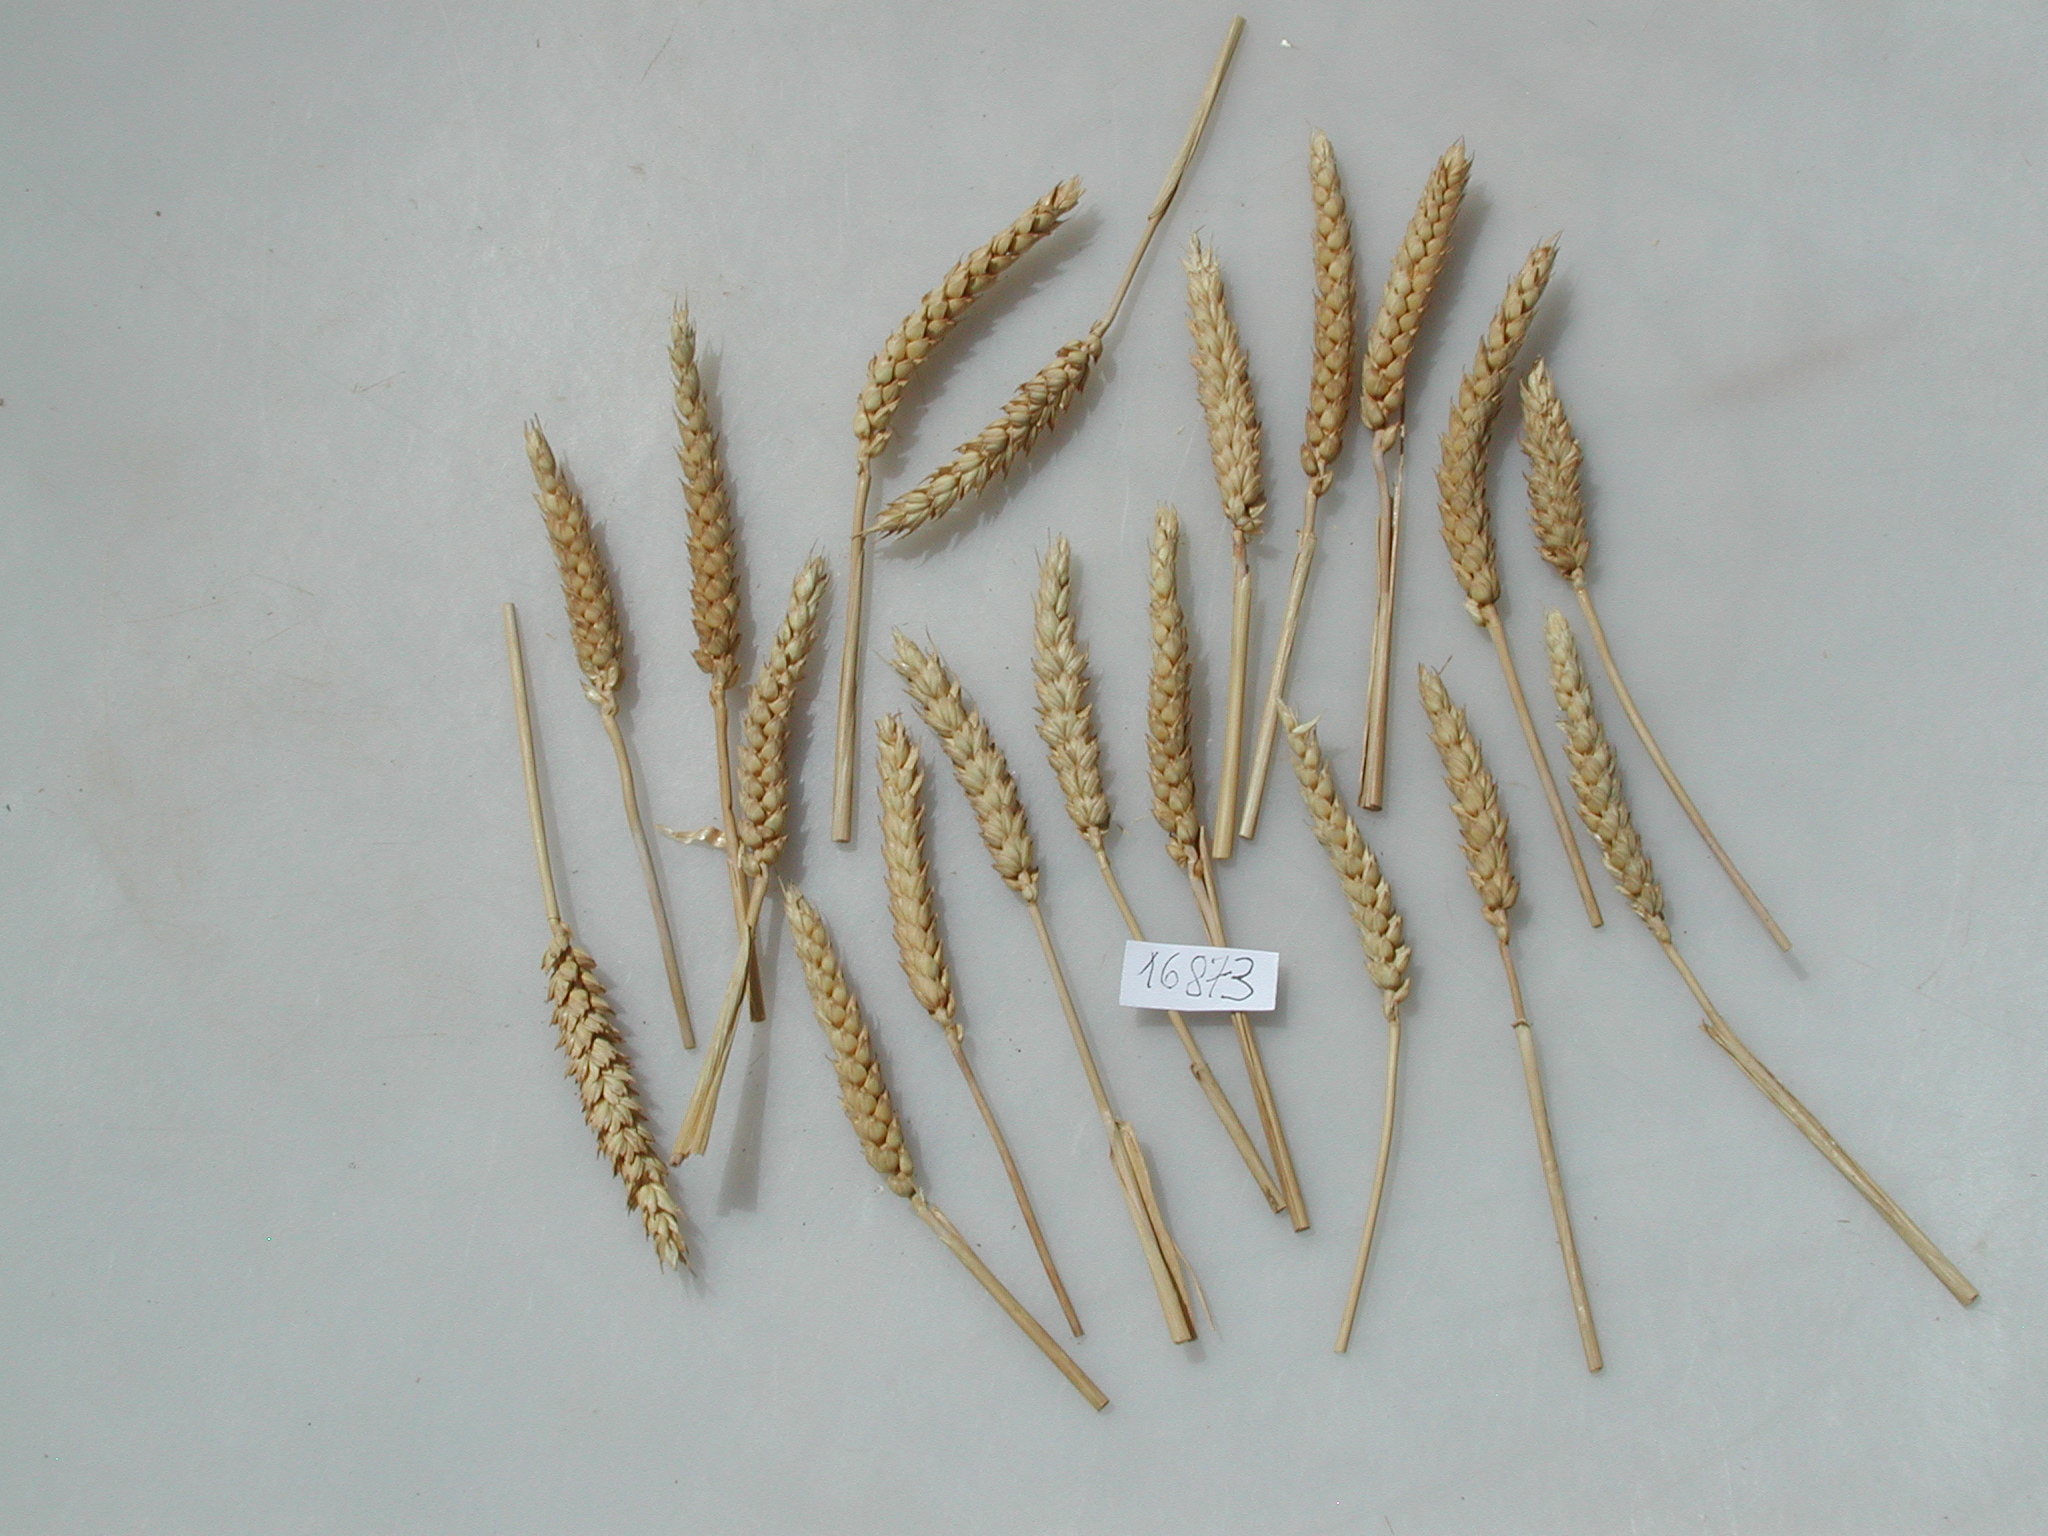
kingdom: Plantae
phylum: Tracheophyta
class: Liliopsida
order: Poales
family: Poaceae
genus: Triticum
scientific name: Triticum
